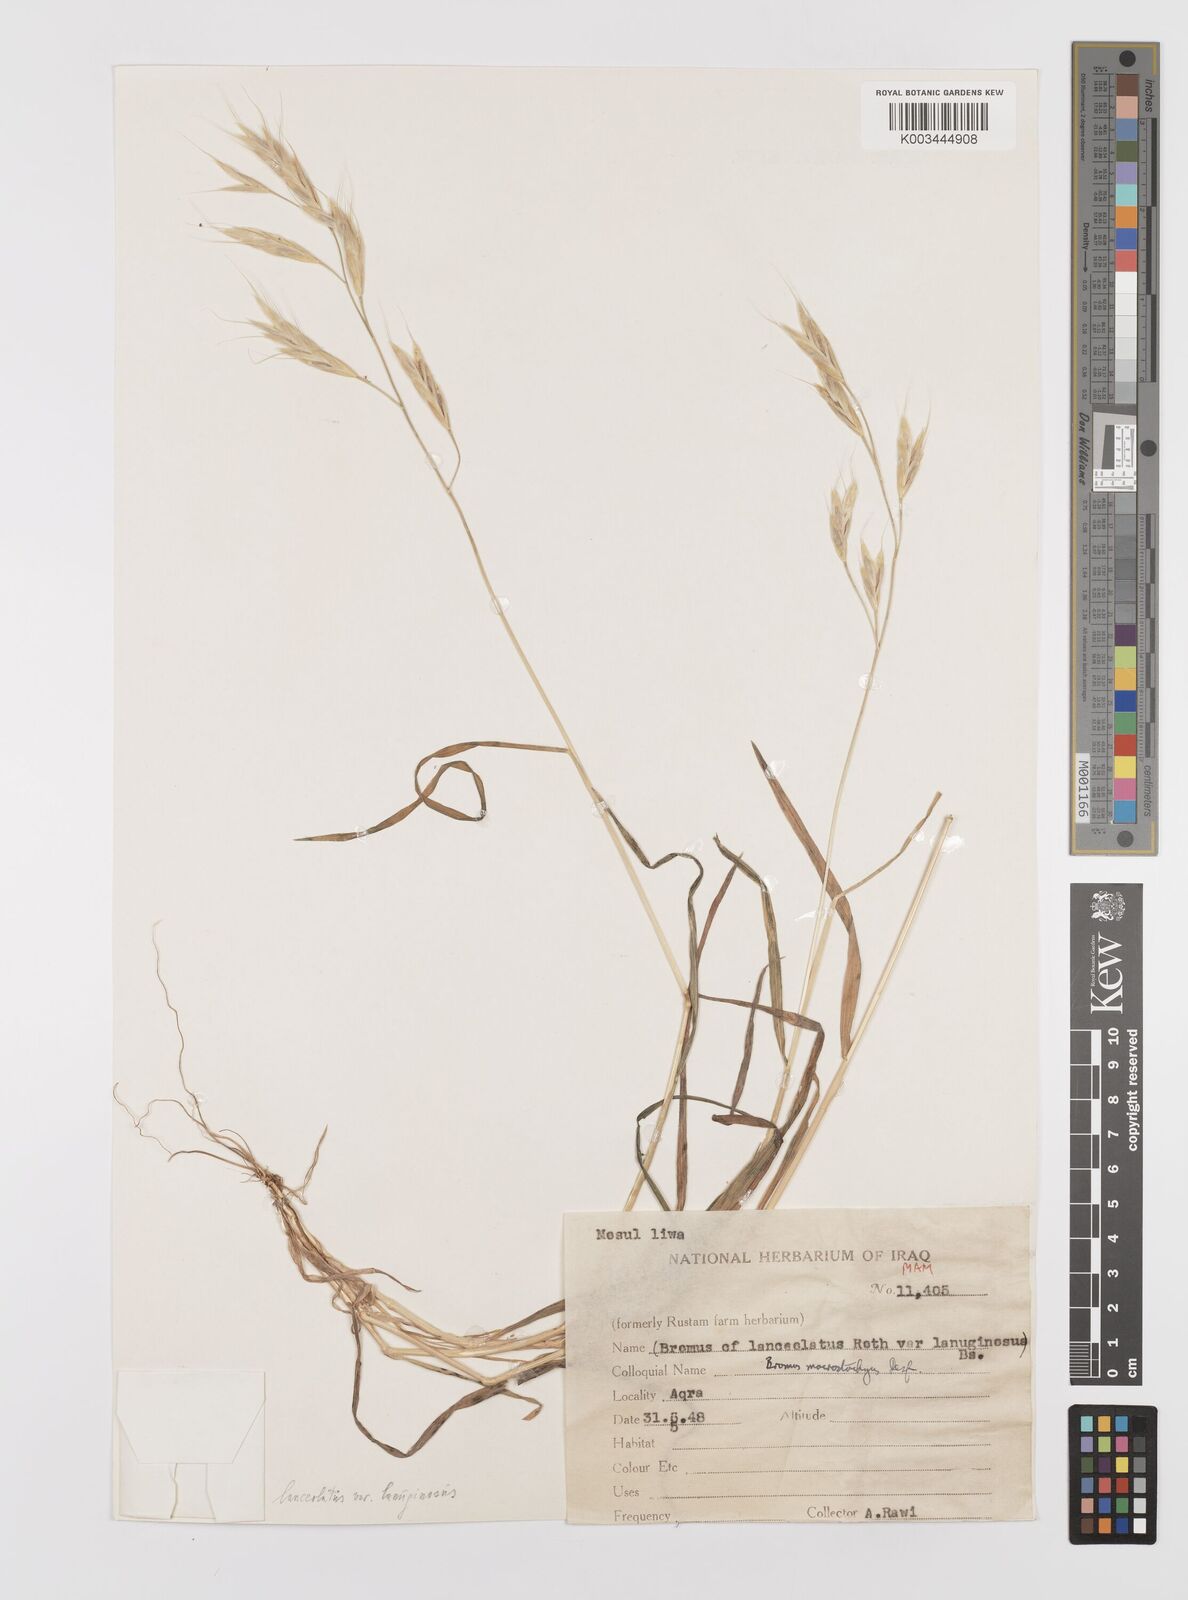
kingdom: Plantae
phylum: Tracheophyta
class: Liliopsida
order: Poales
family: Poaceae
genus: Bromus
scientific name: Bromus lanceolatus
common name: Mediterranean brome
